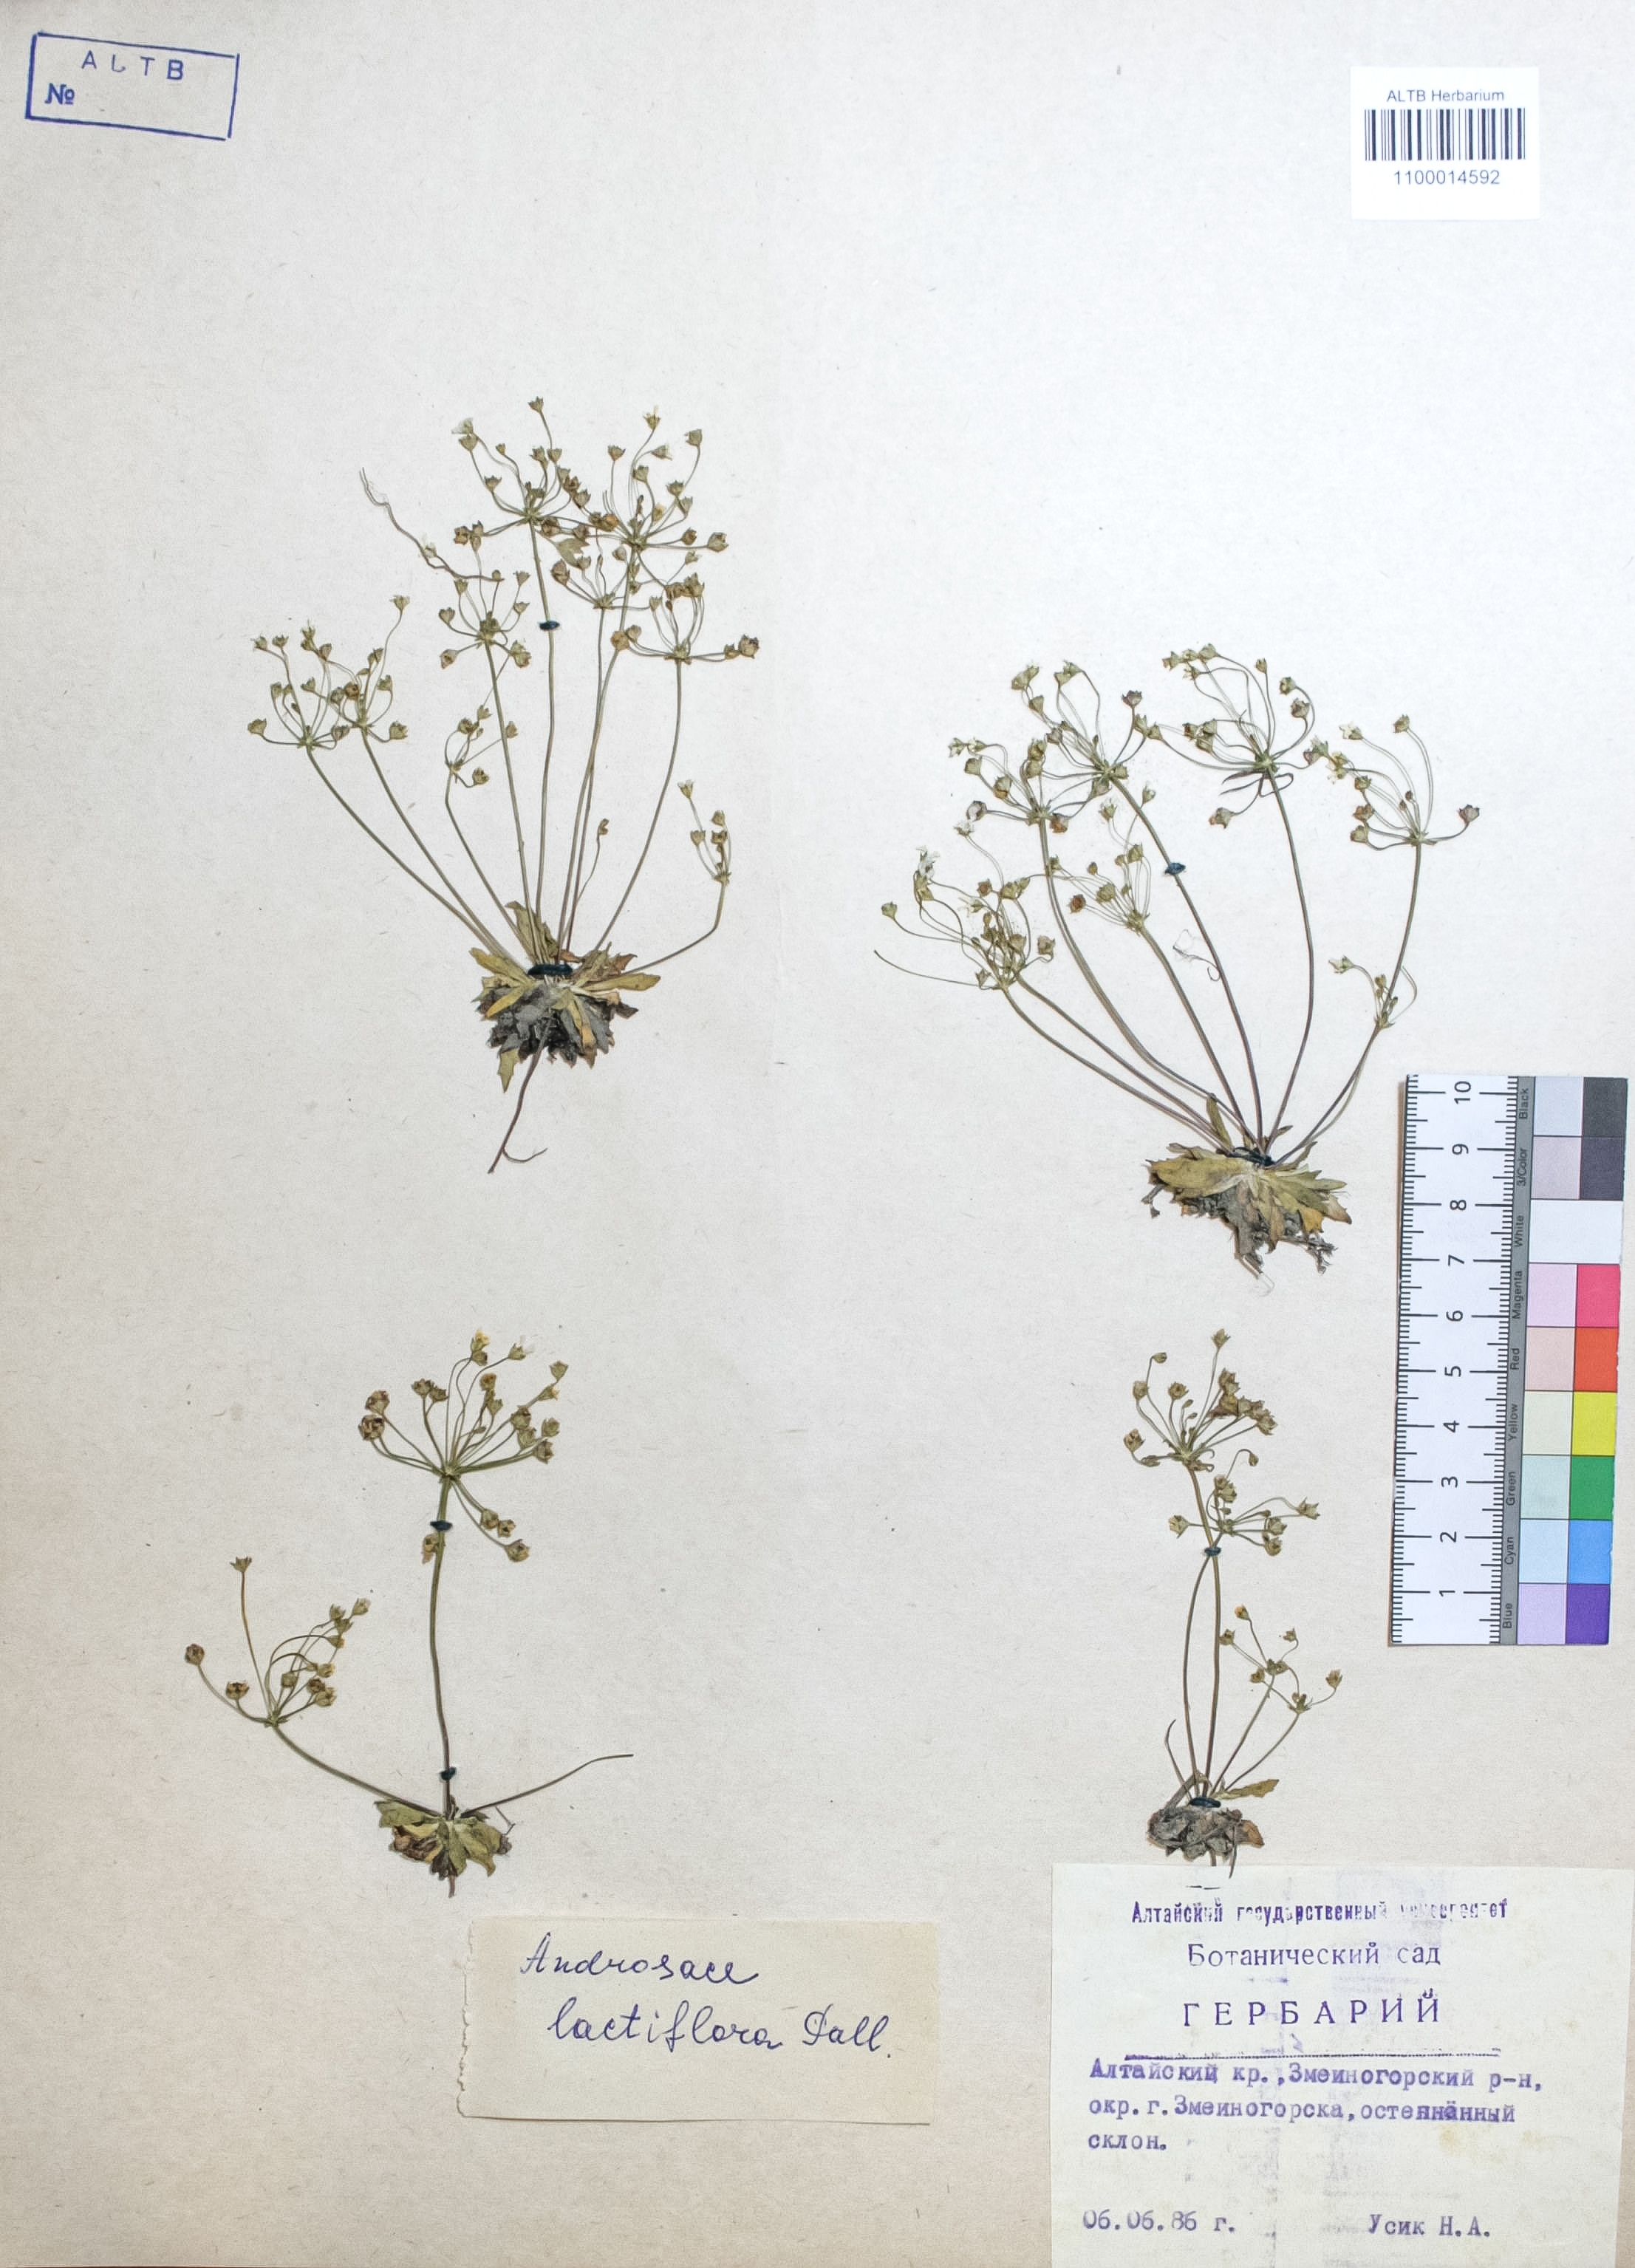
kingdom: Plantae
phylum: Tracheophyta
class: Magnoliopsida
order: Ericales
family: Primulaceae
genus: Androsace
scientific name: Androsace lactiflora
